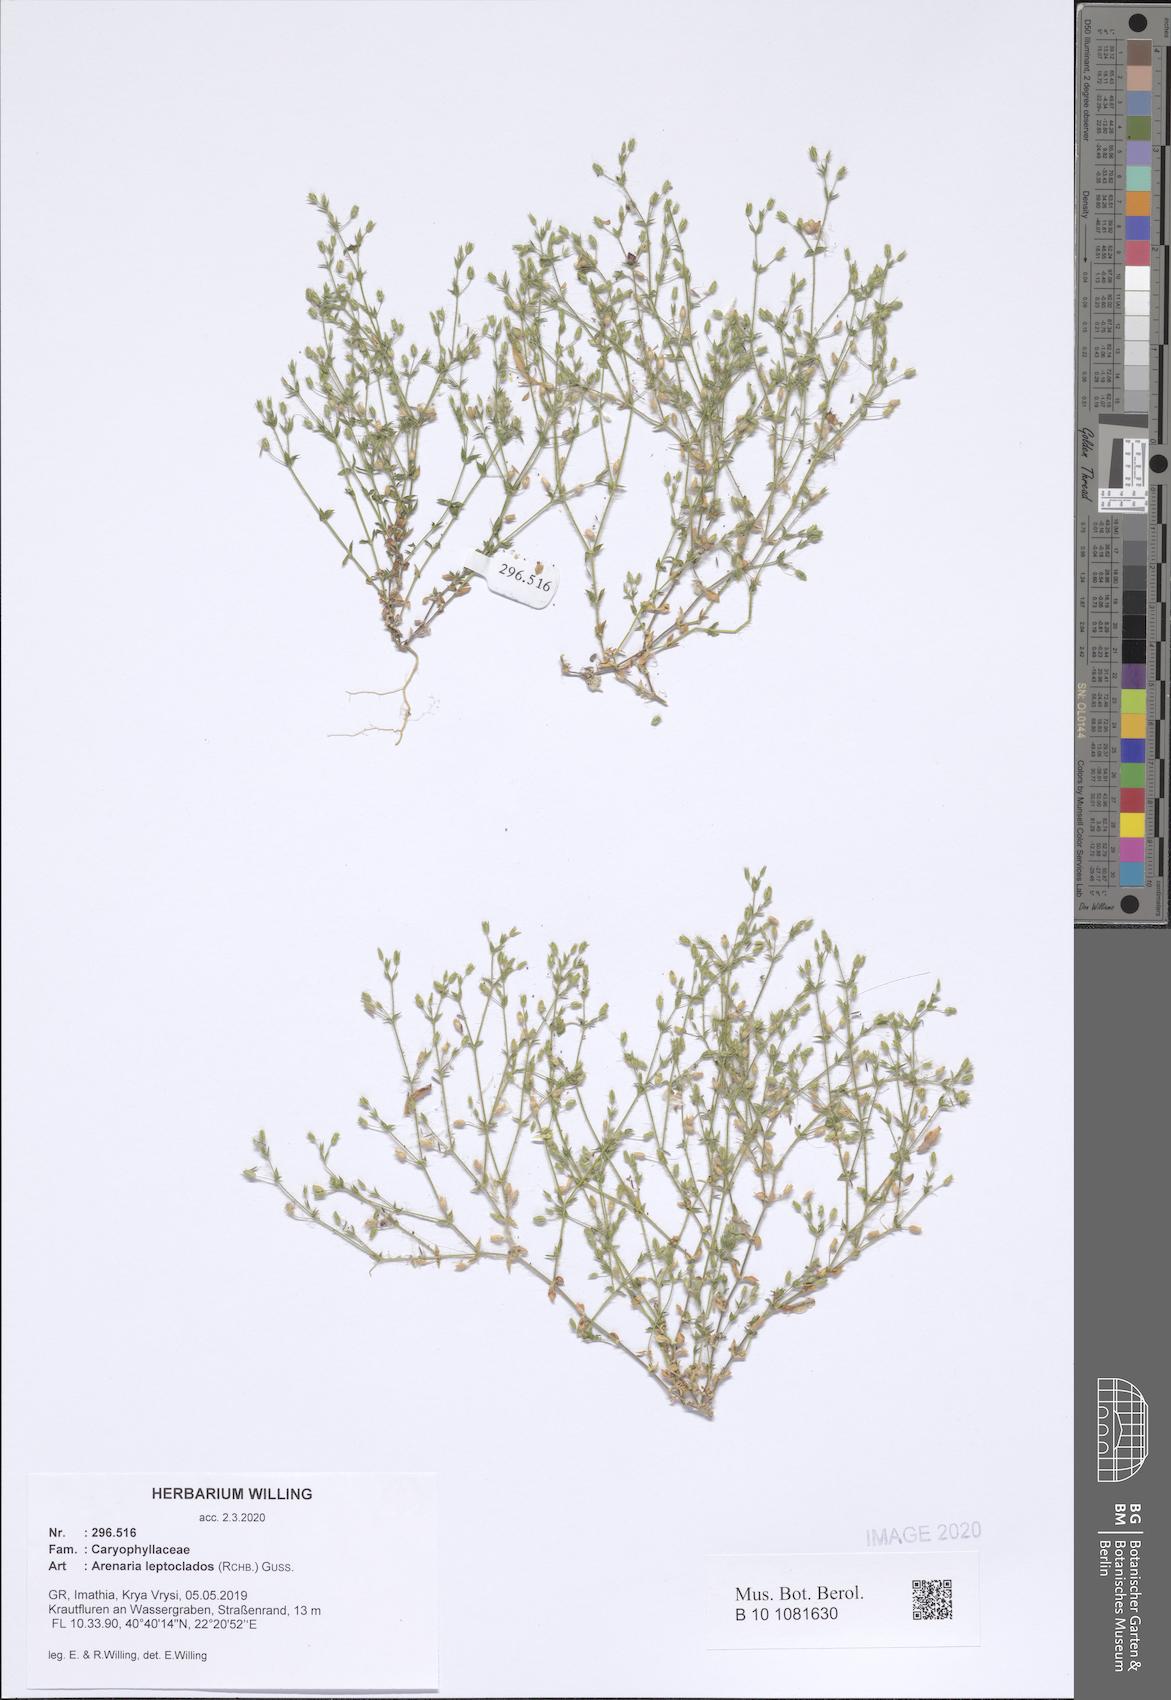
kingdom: Plantae
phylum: Tracheophyta
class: Magnoliopsida
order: Caryophyllales
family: Caryophyllaceae
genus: Arenaria
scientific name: Arenaria leptoclados
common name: Thyme-leaved sandwort
